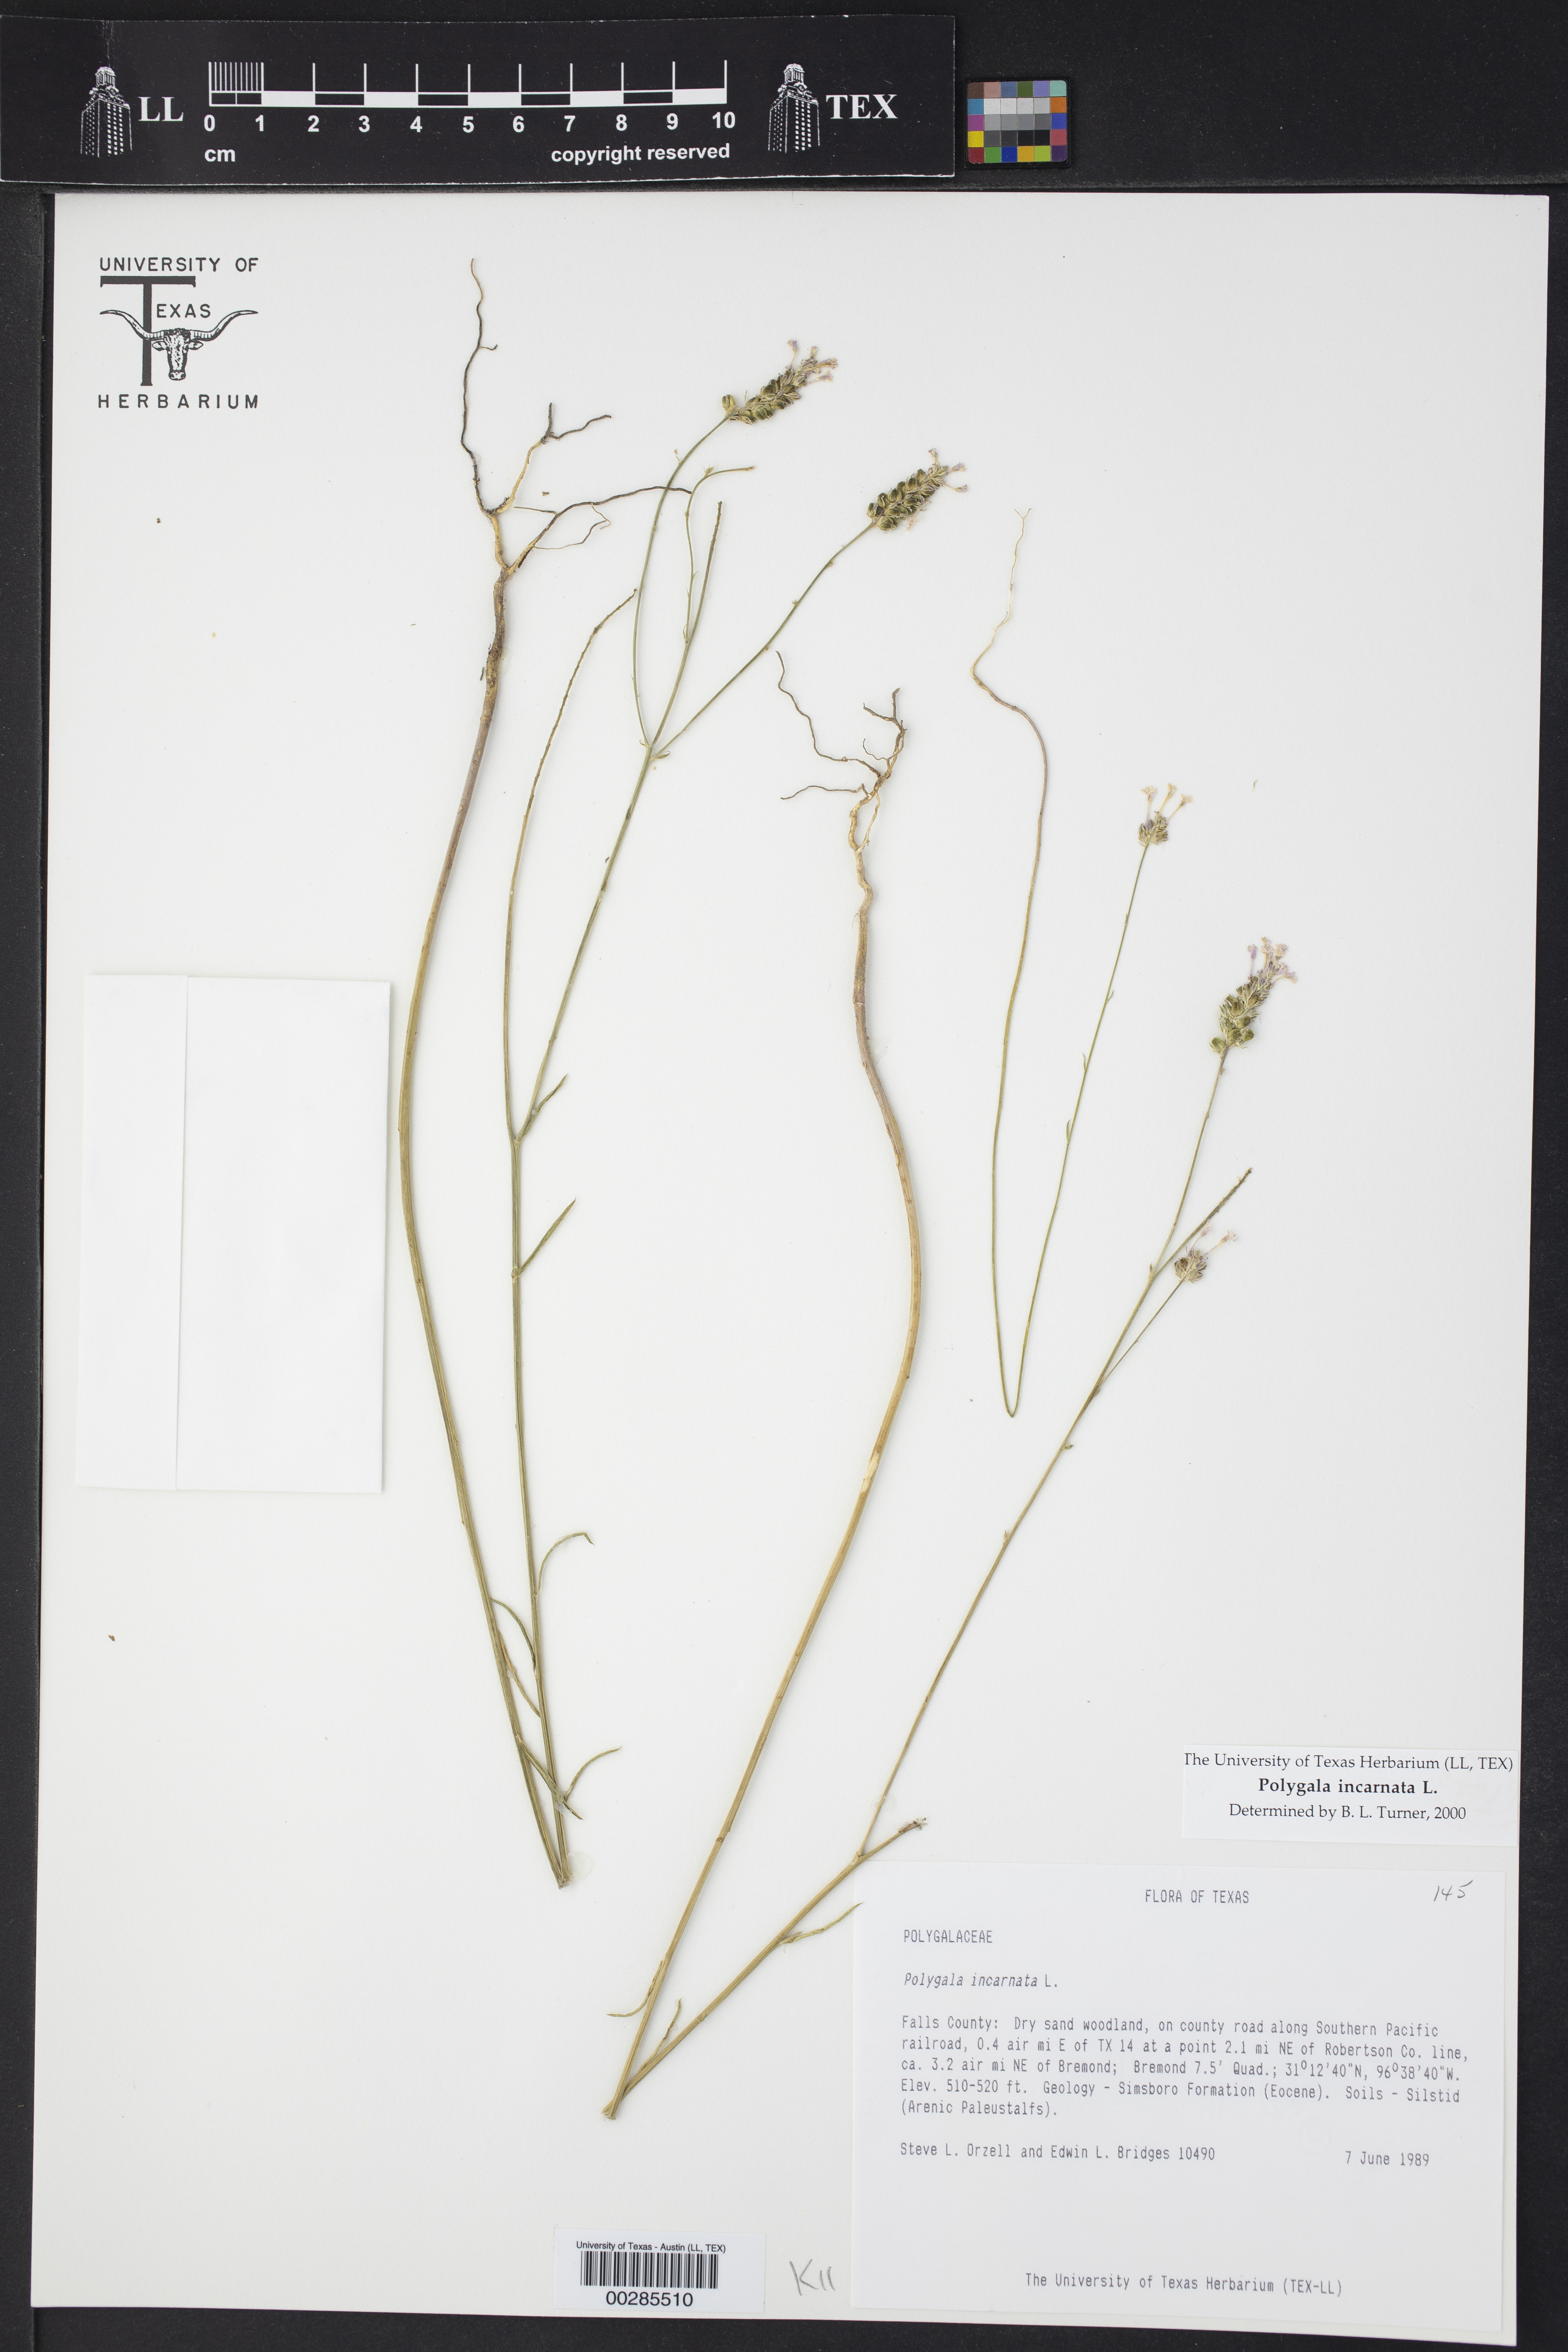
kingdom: Plantae
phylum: Tracheophyta
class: Magnoliopsida
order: Fabales
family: Polygalaceae
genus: Polygala
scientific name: Polygala incarnata
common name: Pink milkwort
